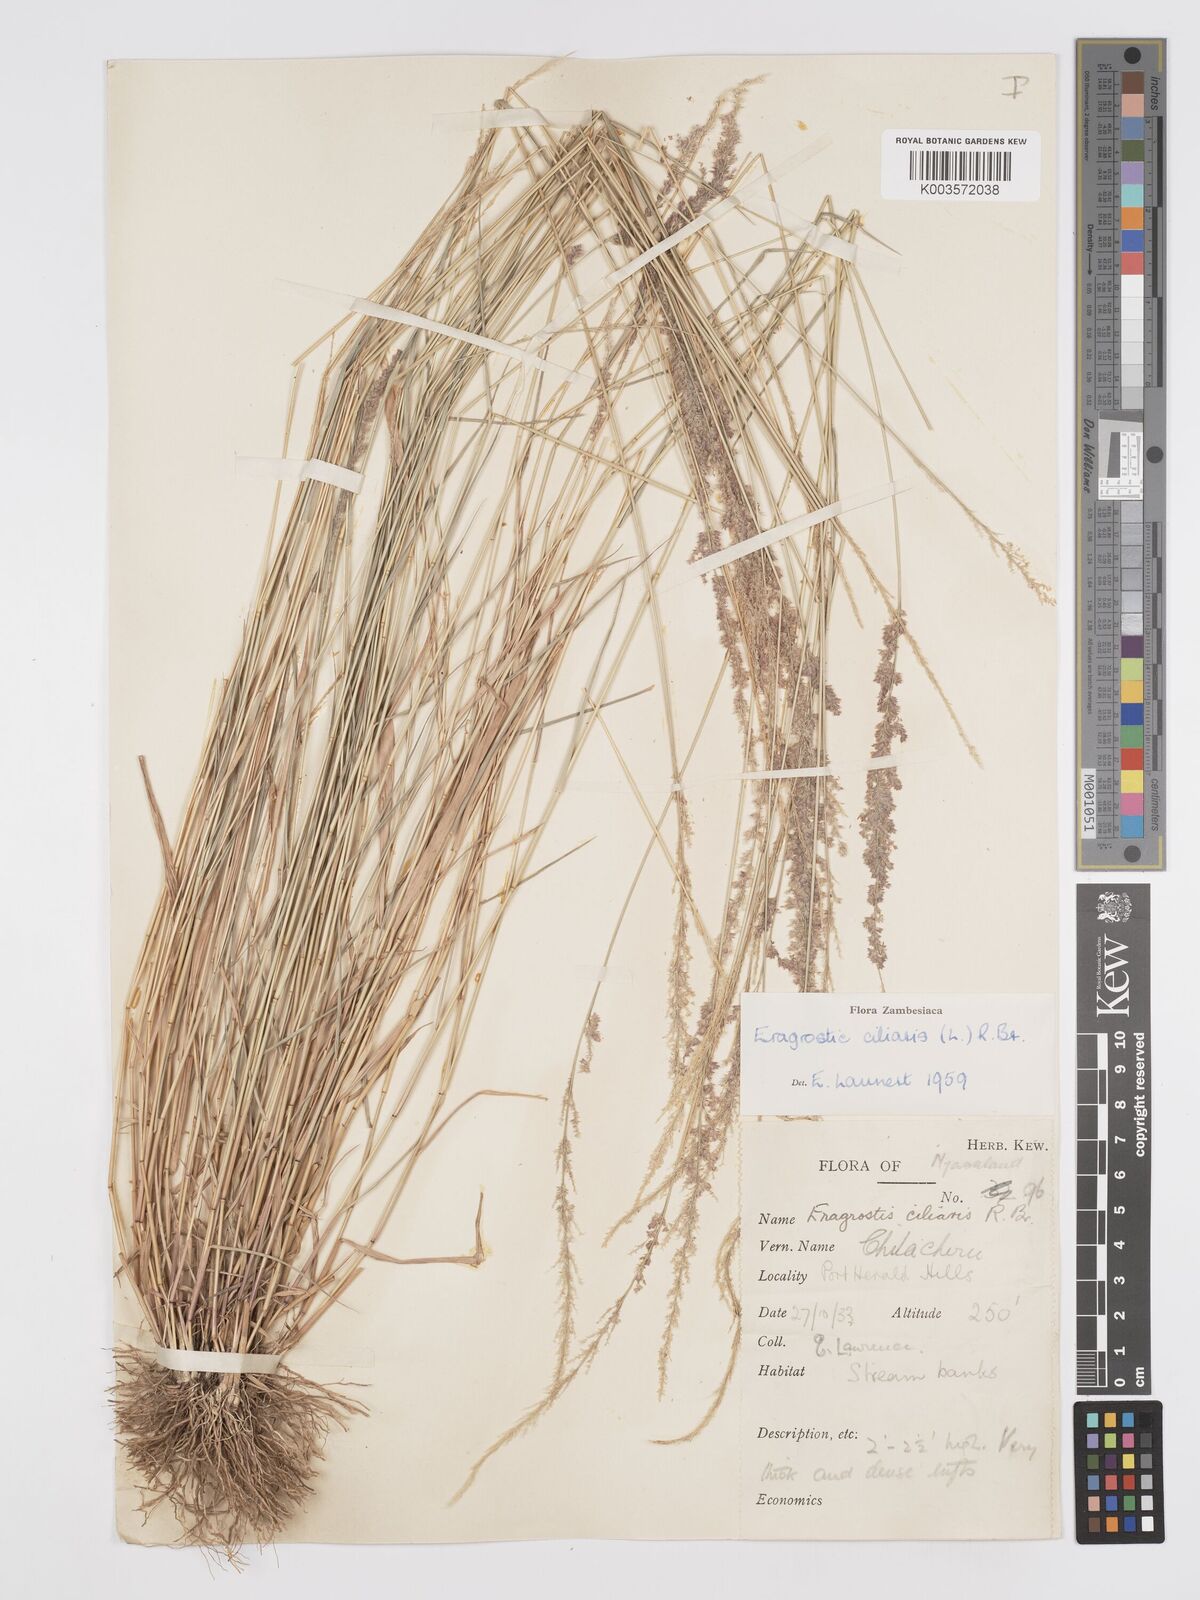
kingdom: Plantae
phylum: Tracheophyta
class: Liliopsida
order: Poales
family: Poaceae
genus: Eragrostis
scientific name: Eragrostis ciliaris
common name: Gophertail lovegrass
